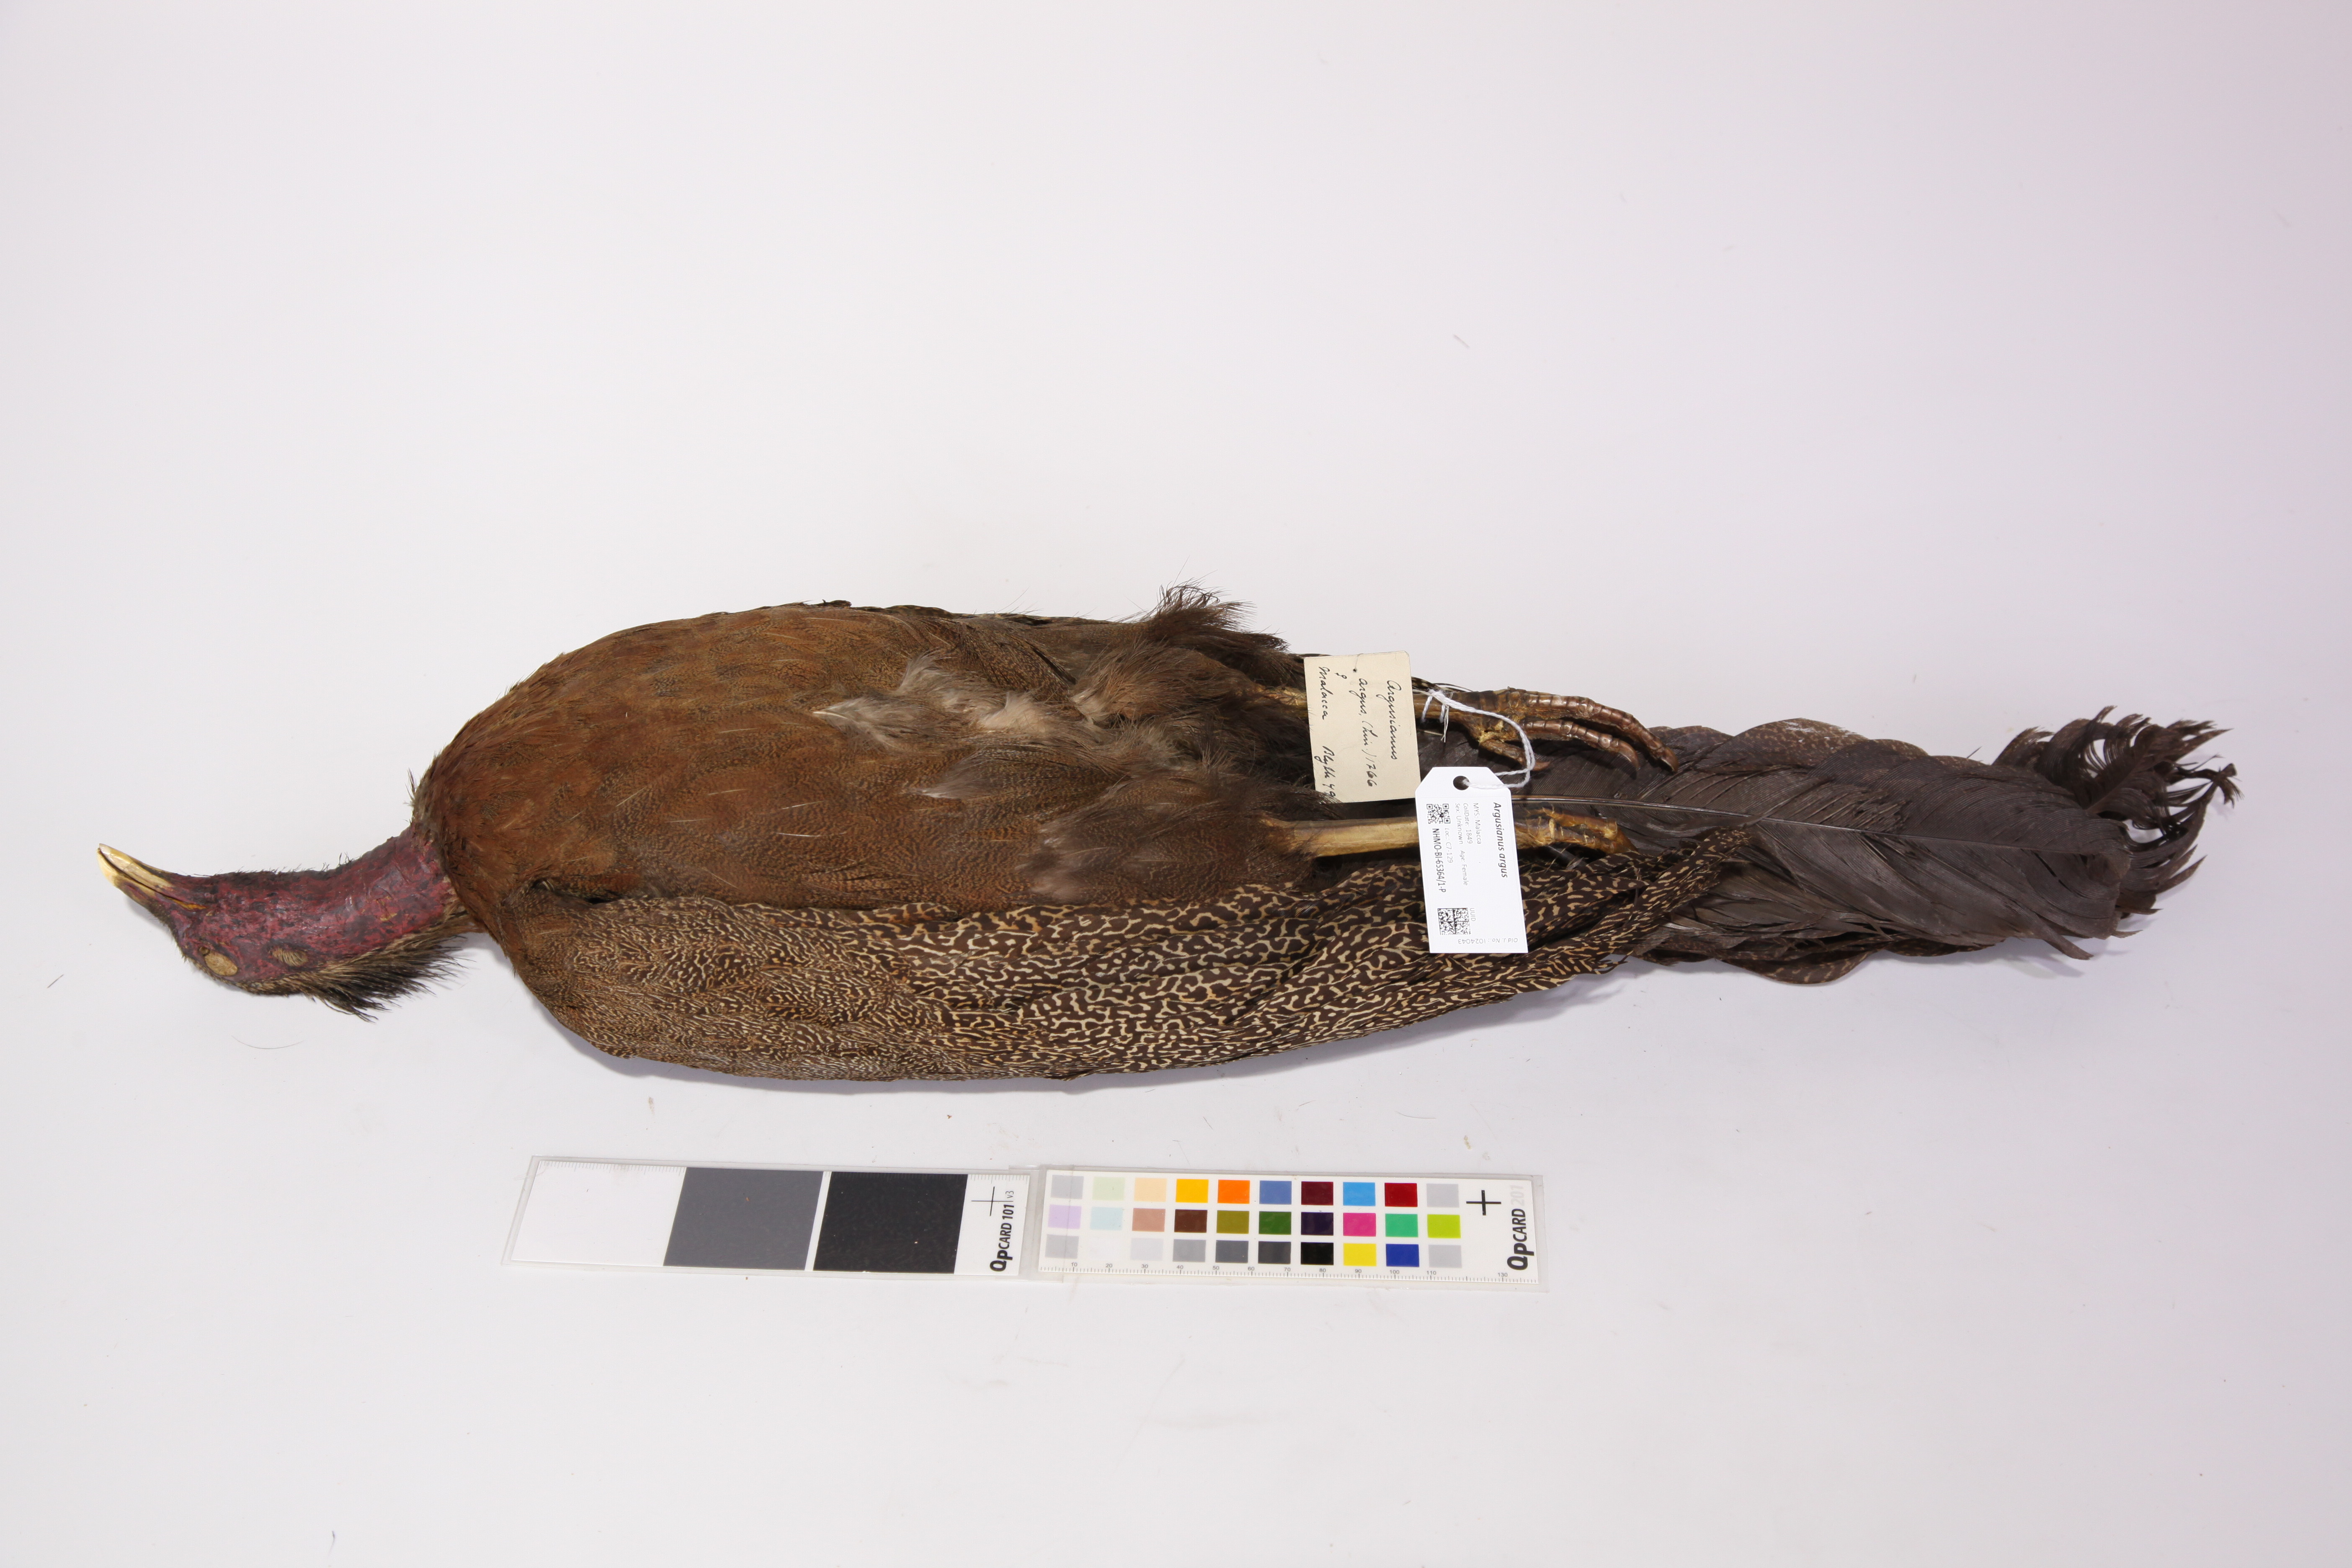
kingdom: Animalia
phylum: Chordata
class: Aves
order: Galliformes
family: Phasianidae
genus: Argusianus
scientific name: Argusianus argus
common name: Great argus
